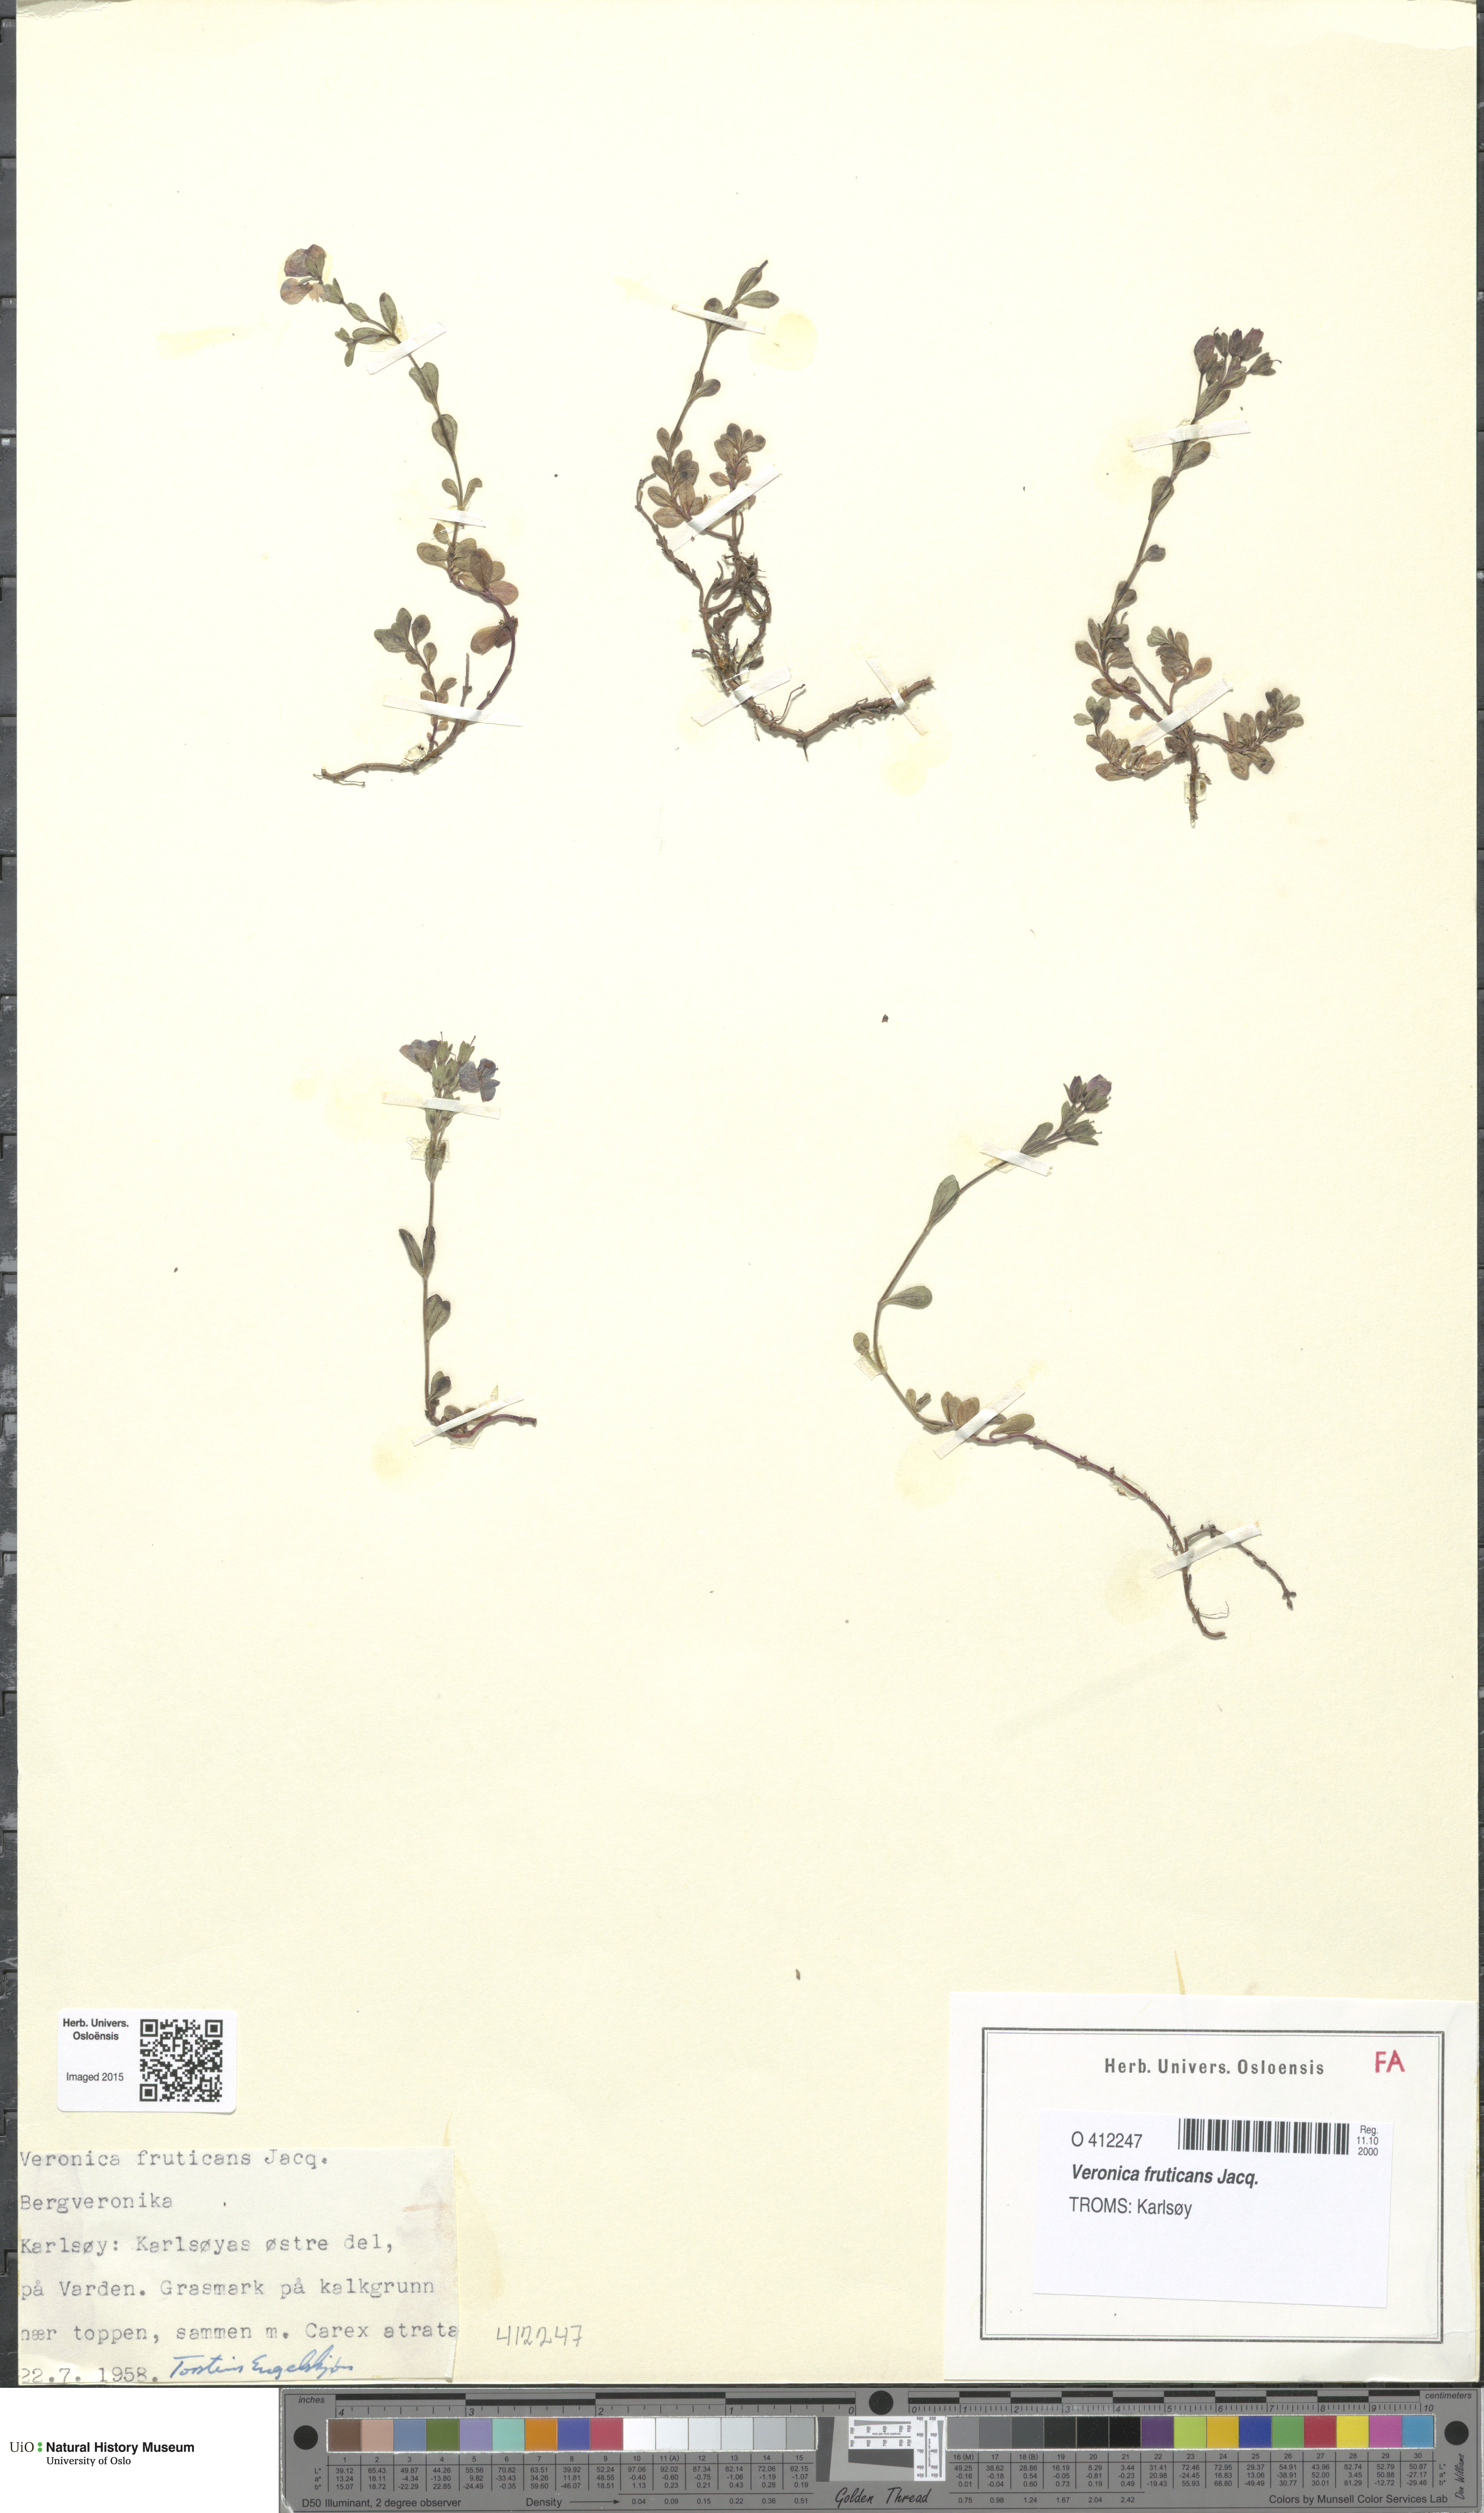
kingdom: Plantae
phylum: Tracheophyta
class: Magnoliopsida
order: Lamiales
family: Plantaginaceae
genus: Veronica
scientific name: Veronica fruticans
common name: Rock speedwell
